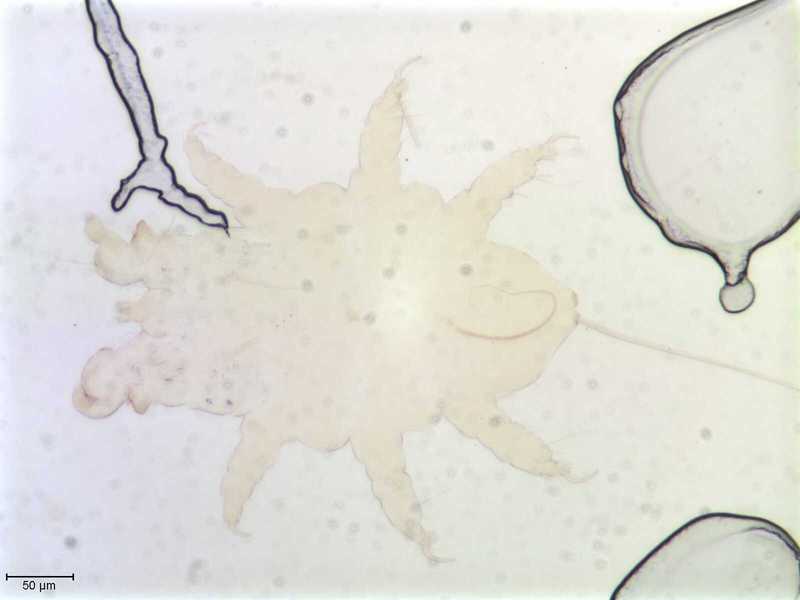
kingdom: Animalia
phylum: Arthropoda
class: Arachnida
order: Trombidiformes
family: Myobiidae
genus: Amorphacarus
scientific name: Amorphacarus parvisetosus
